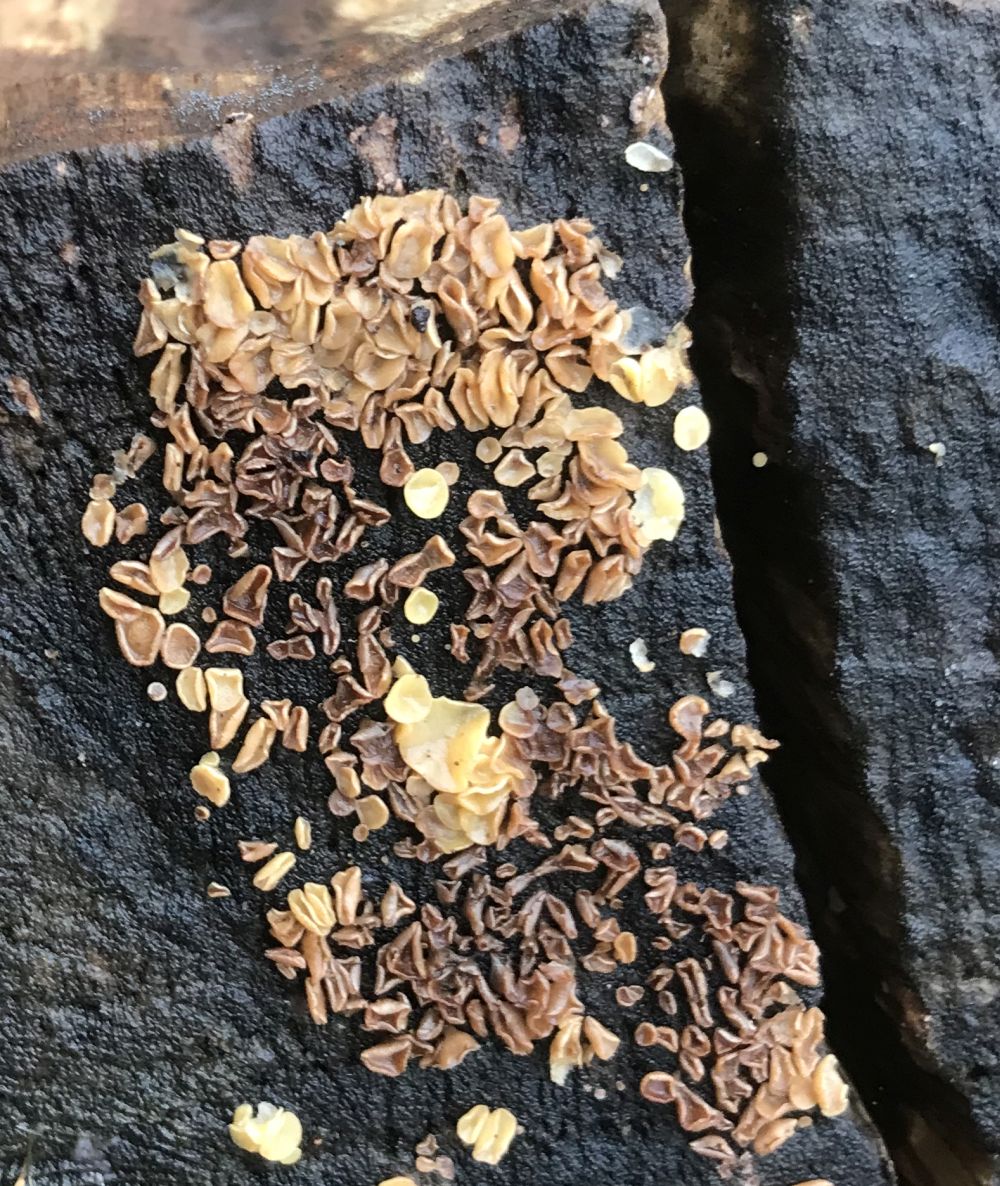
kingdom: Fungi
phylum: Ascomycota
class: Leotiomycetes
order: Helotiales
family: Helotiaceae
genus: Hymenoscyphus
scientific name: Hymenoscyphus
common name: stilkskive
